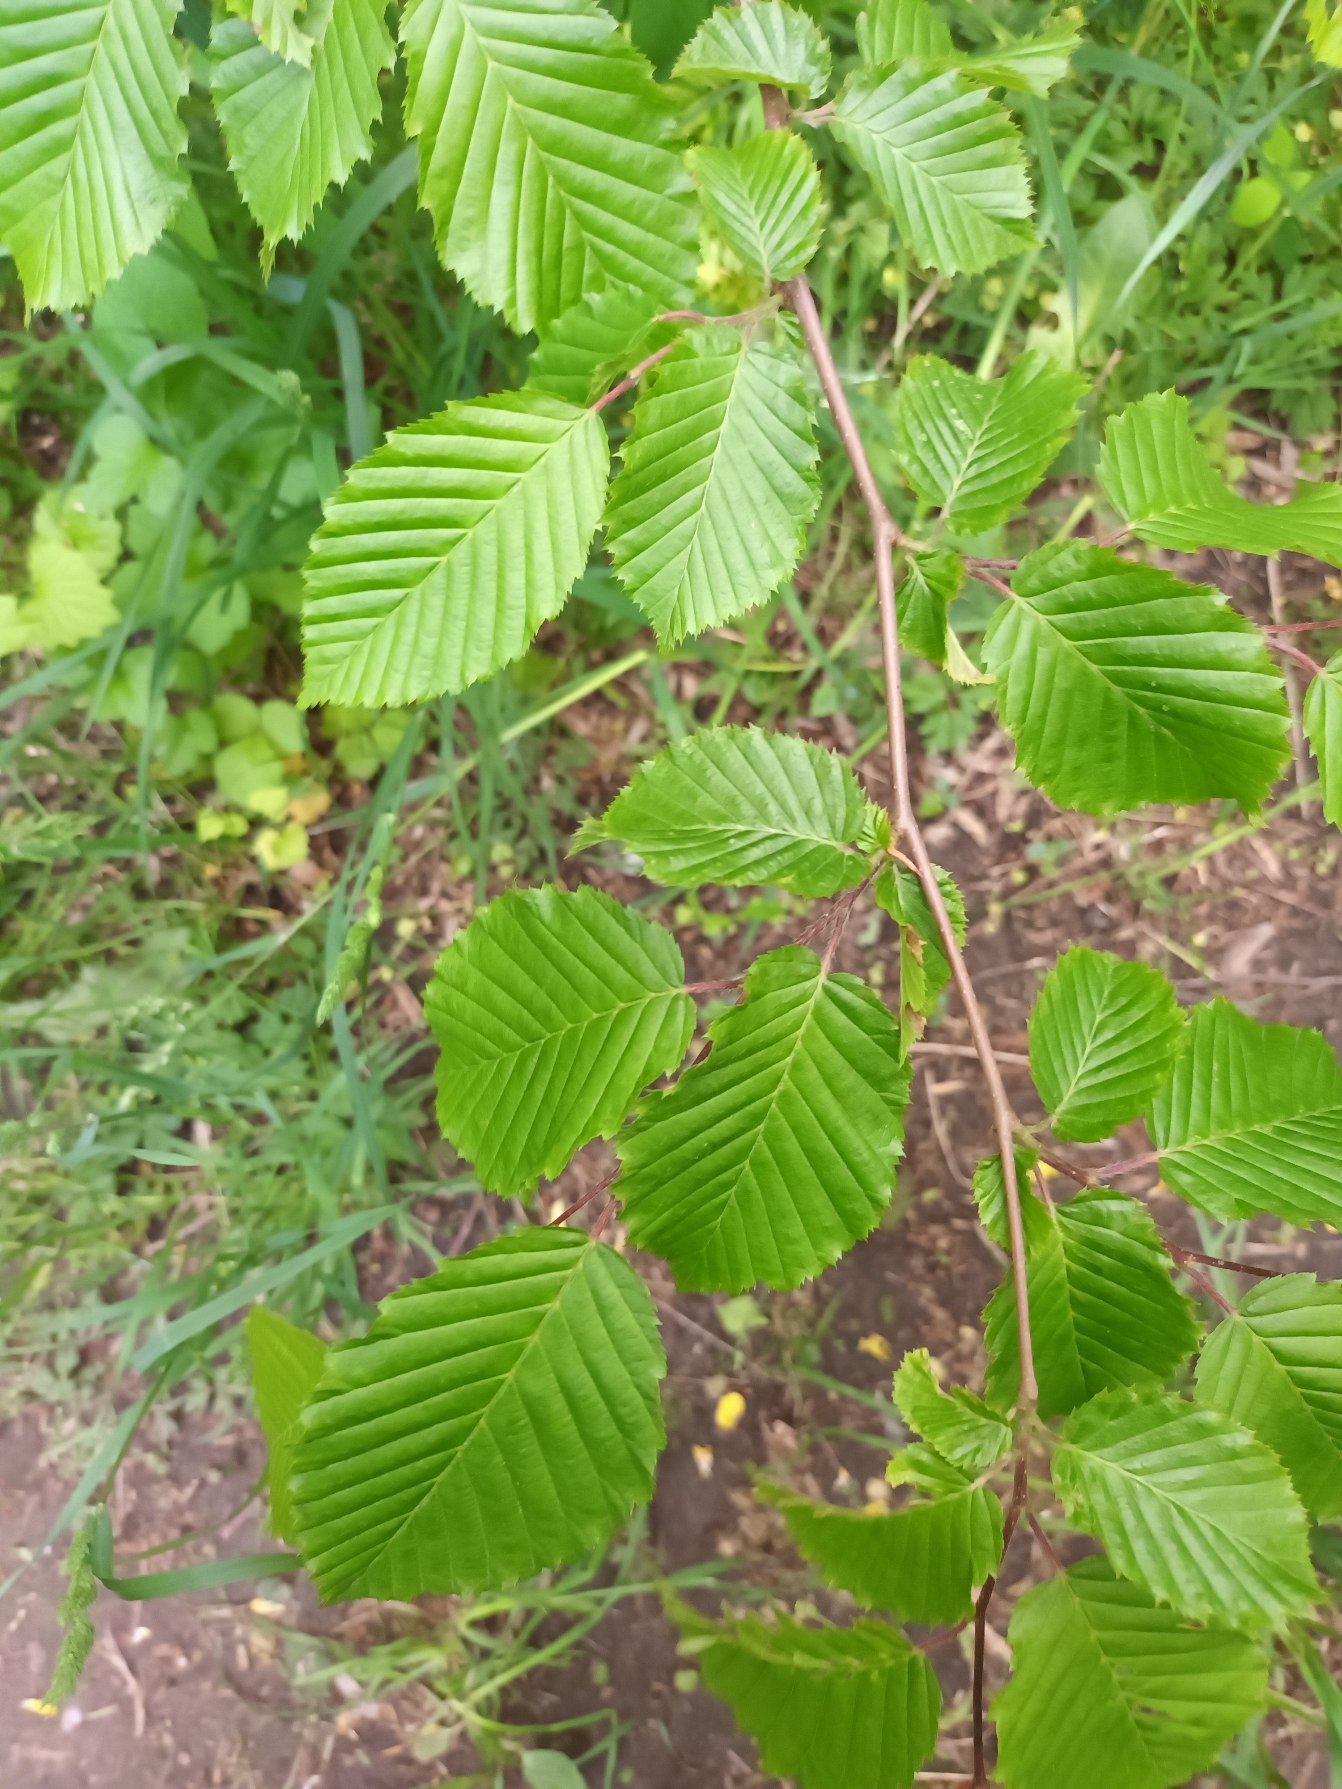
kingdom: Plantae
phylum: Tracheophyta
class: Magnoliopsida
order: Fagales
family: Betulaceae
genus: Carpinus
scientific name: Carpinus betulus
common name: Avnbøg
